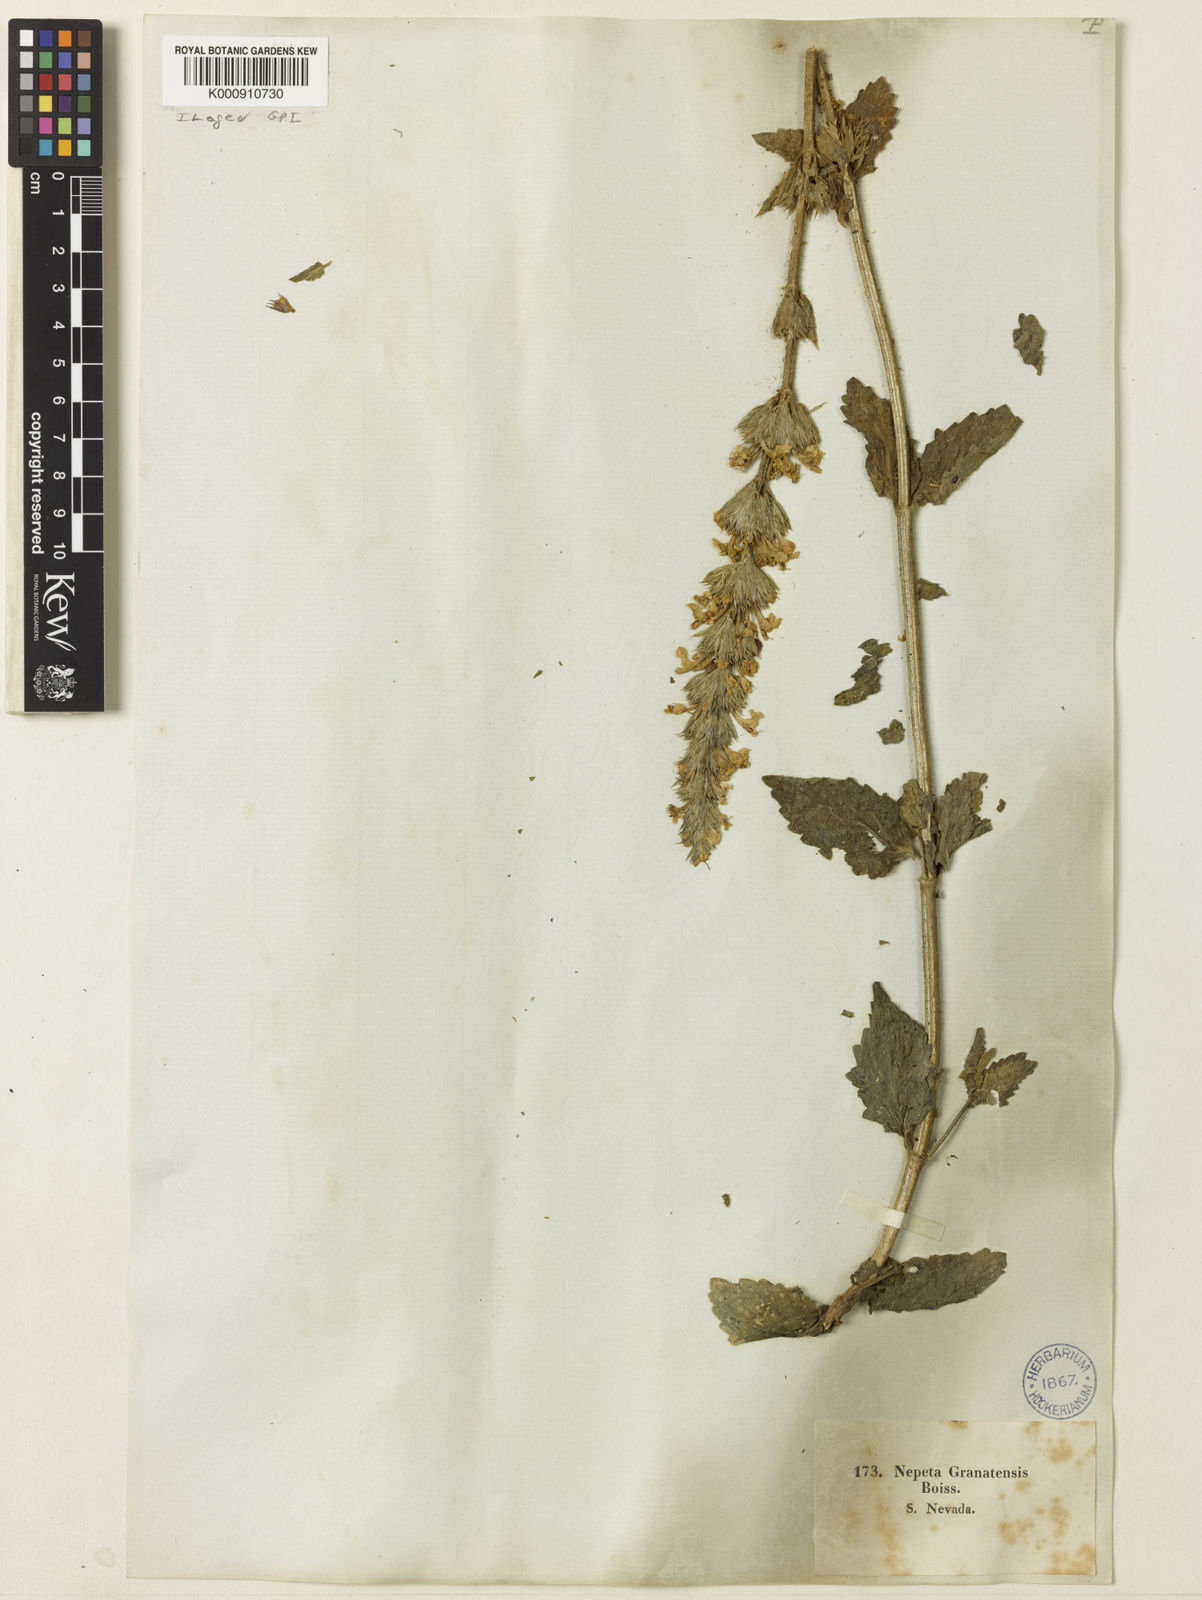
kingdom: Plantae
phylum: Tracheophyta
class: Magnoliopsida
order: Lamiales
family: Lamiaceae
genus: Nepeta
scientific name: Nepeta granatensis
